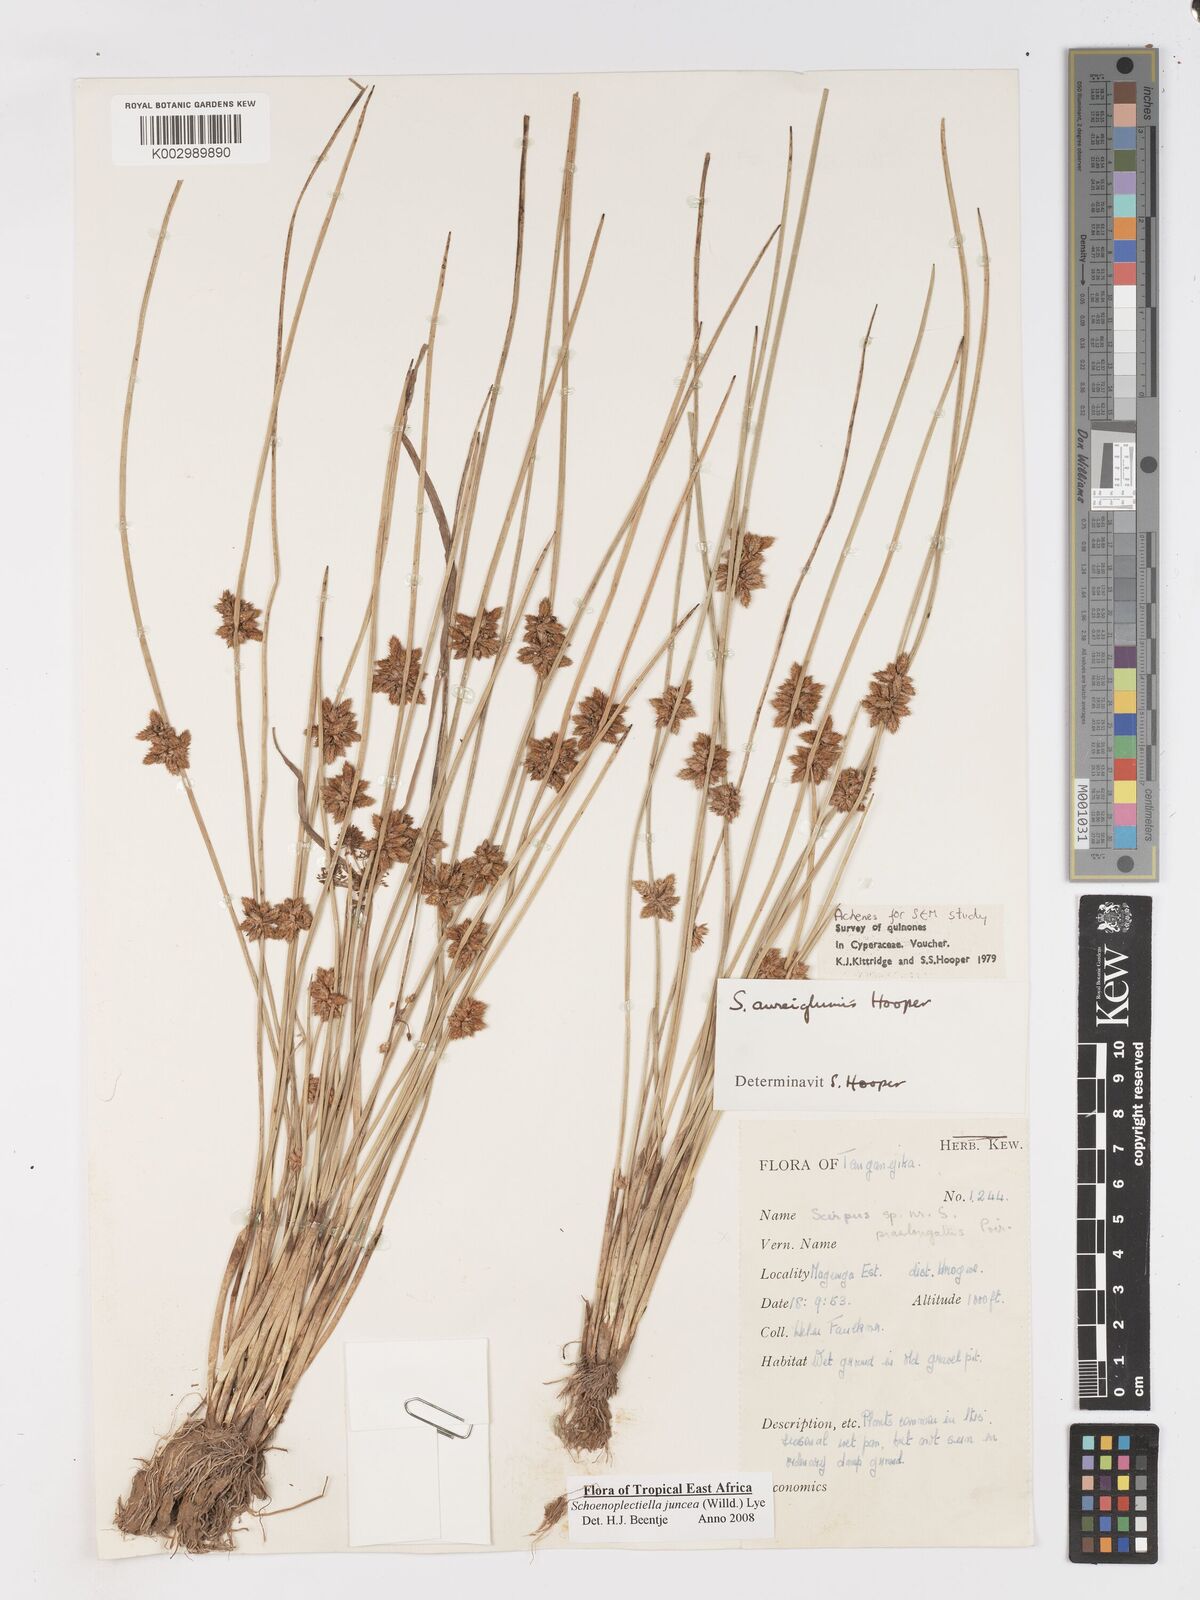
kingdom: Plantae
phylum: Tracheophyta
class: Liliopsida
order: Poales
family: Cyperaceae
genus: Schoenoplectiella
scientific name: Schoenoplectiella juncea
